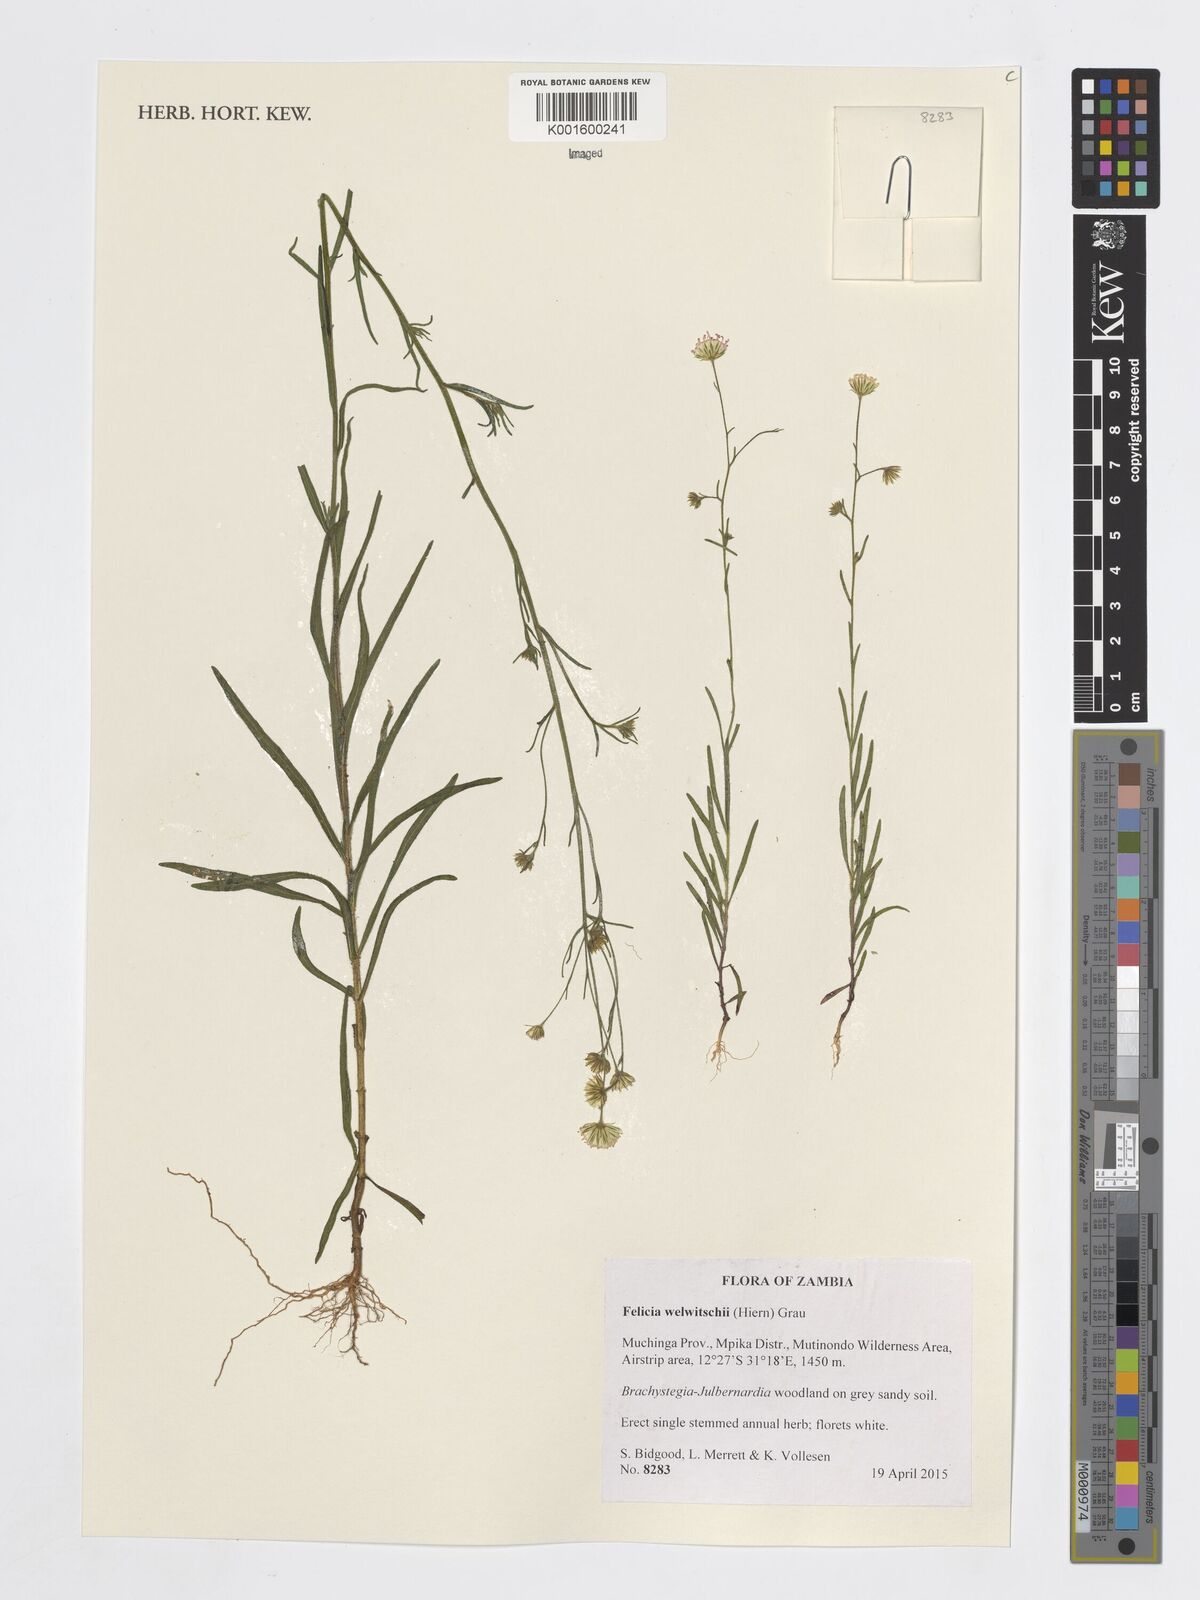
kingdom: Plantae
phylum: Tracheophyta
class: Magnoliopsida
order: Asterales
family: Asteraceae
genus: Felicia
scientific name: Felicia welwitschii
